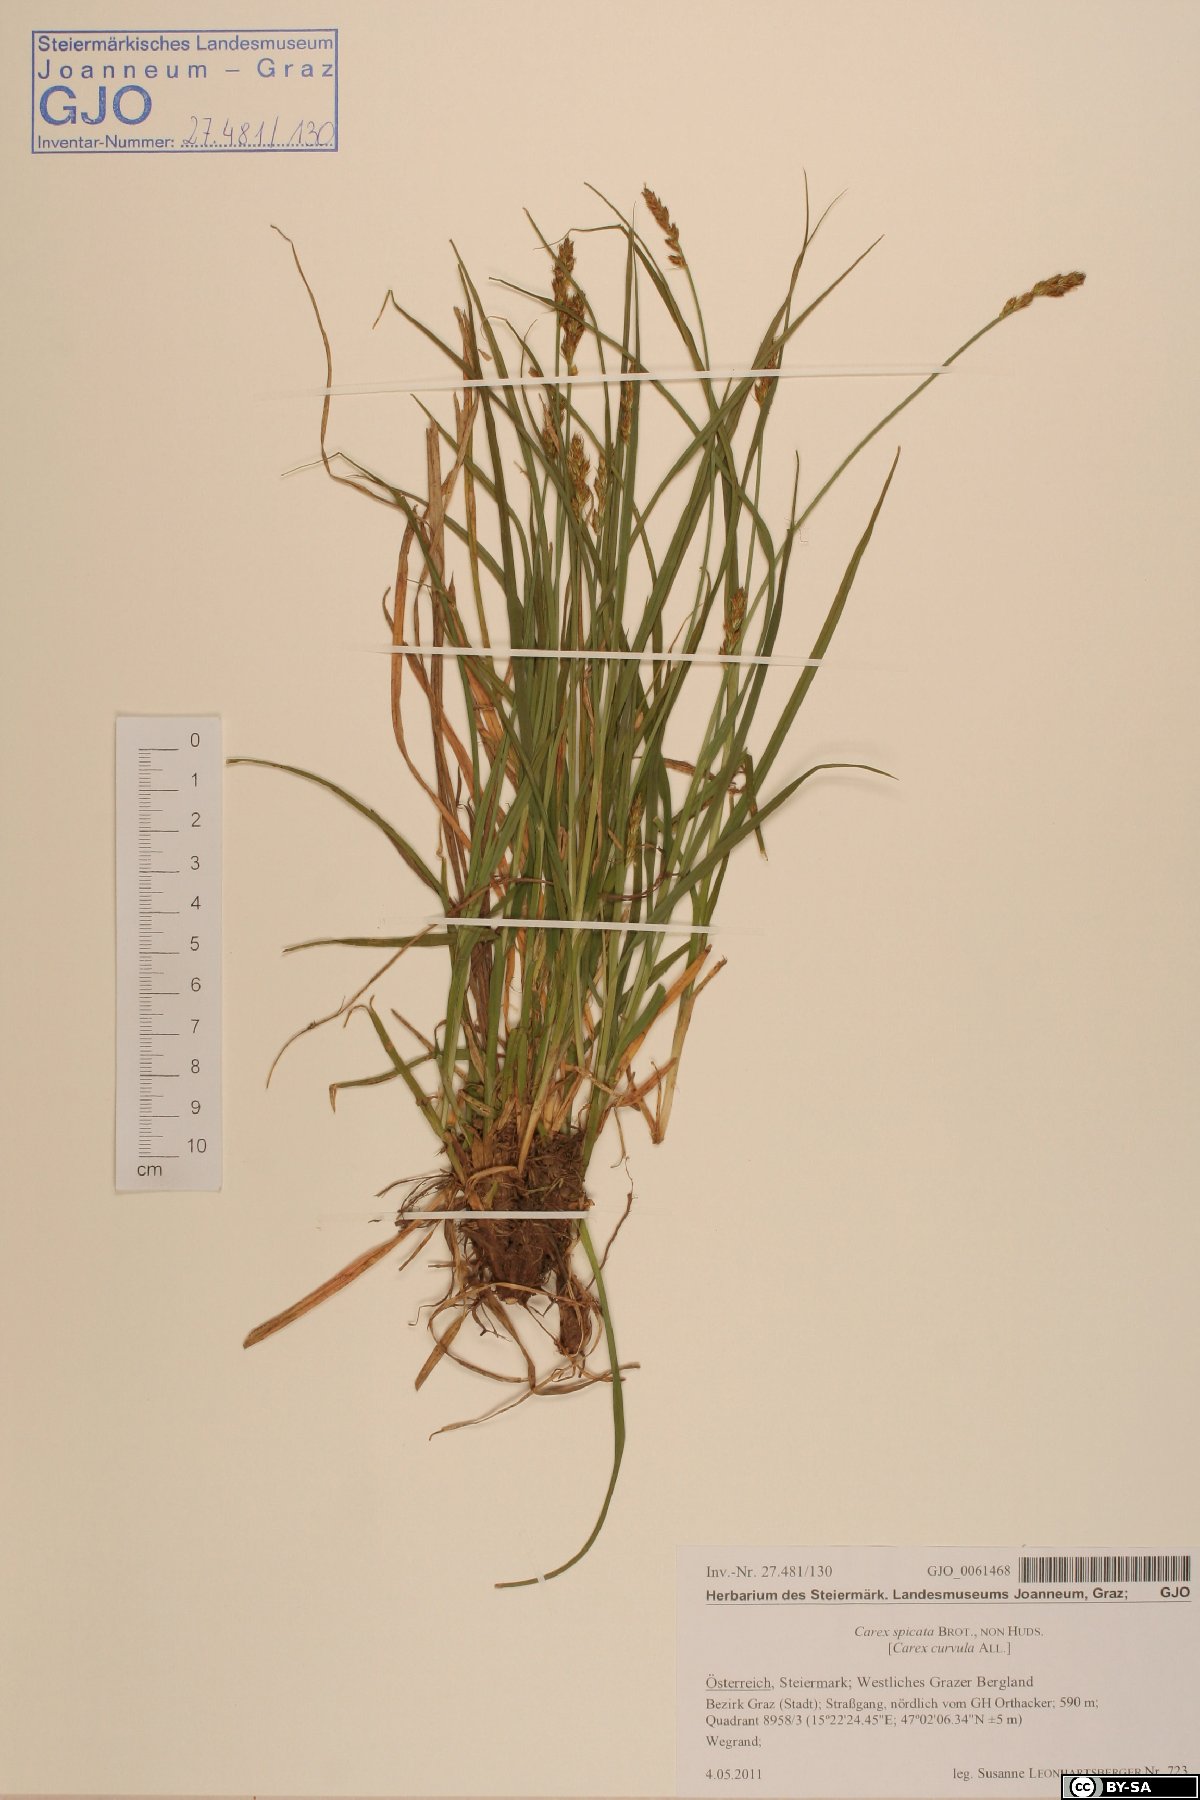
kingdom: Plantae
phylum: Tracheophyta
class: Liliopsida
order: Poales
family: Cyperaceae
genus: Carex
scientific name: Carex spicata
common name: Spiked sedge
